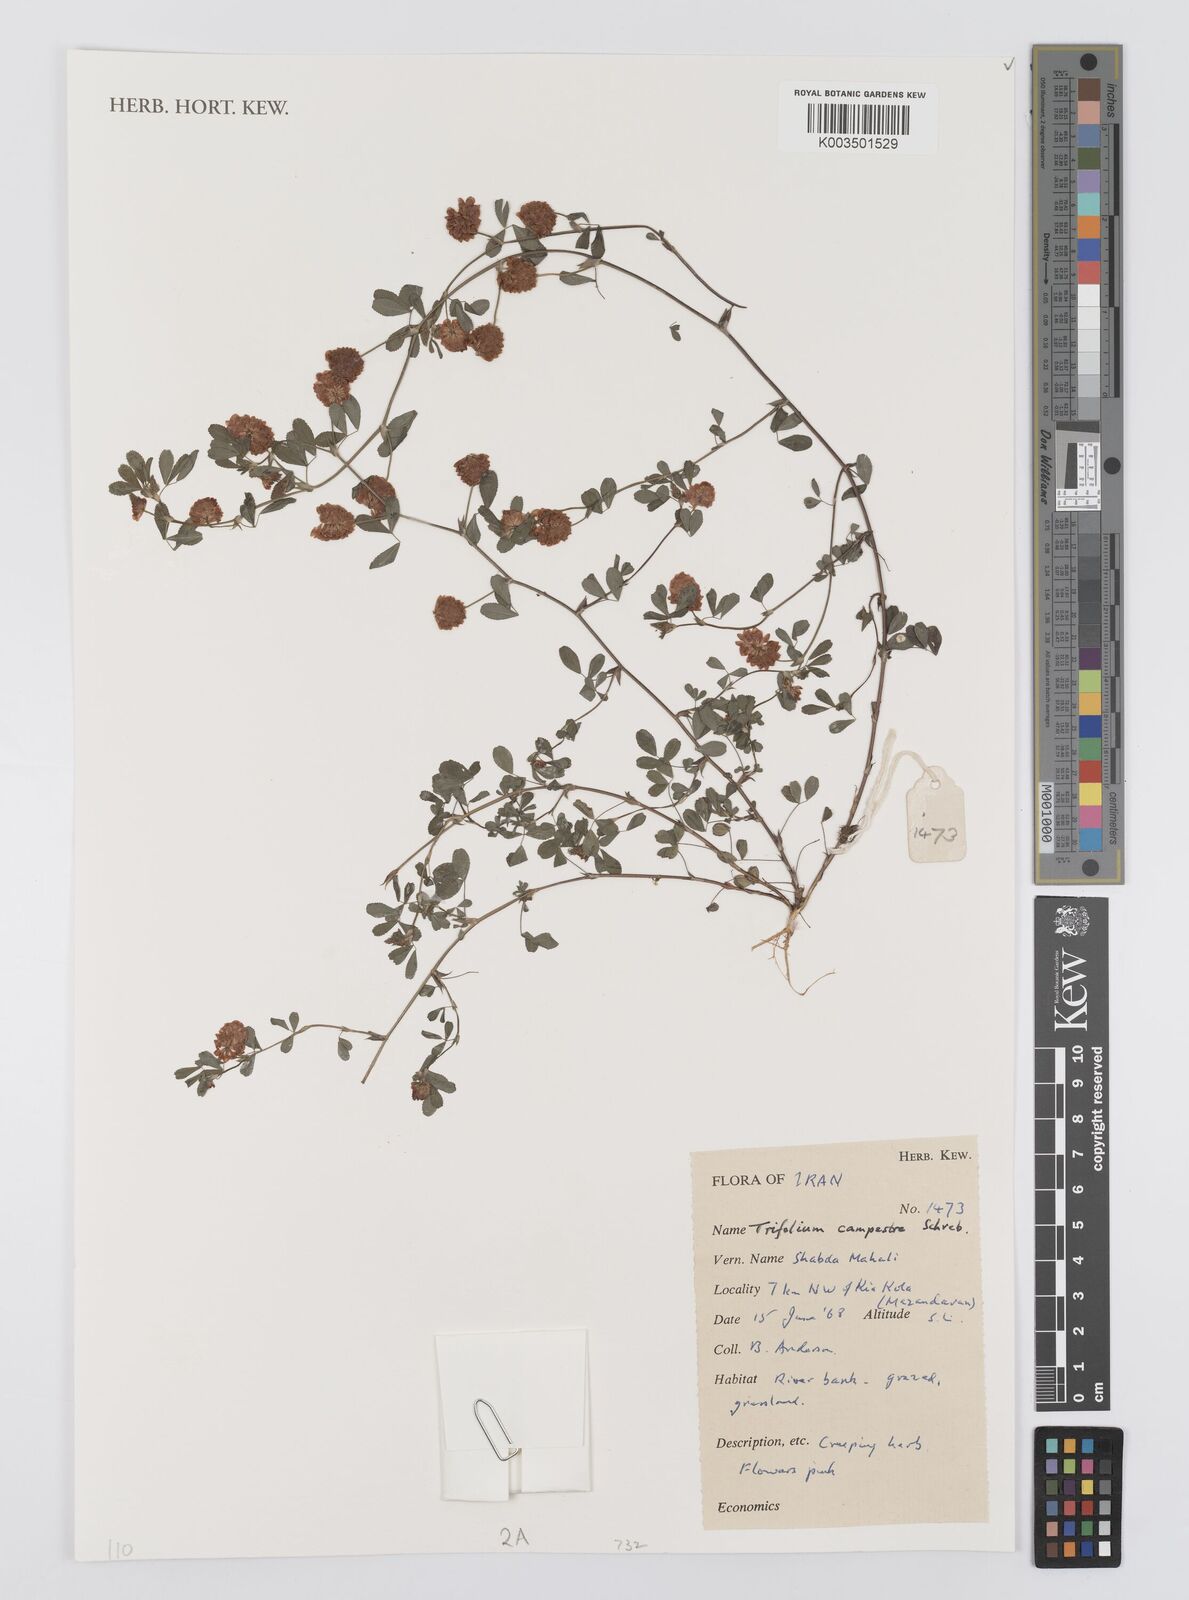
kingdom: Plantae
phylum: Tracheophyta
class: Magnoliopsida
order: Fabales
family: Fabaceae
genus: Trifolium
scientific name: Trifolium campestre
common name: Field clover
